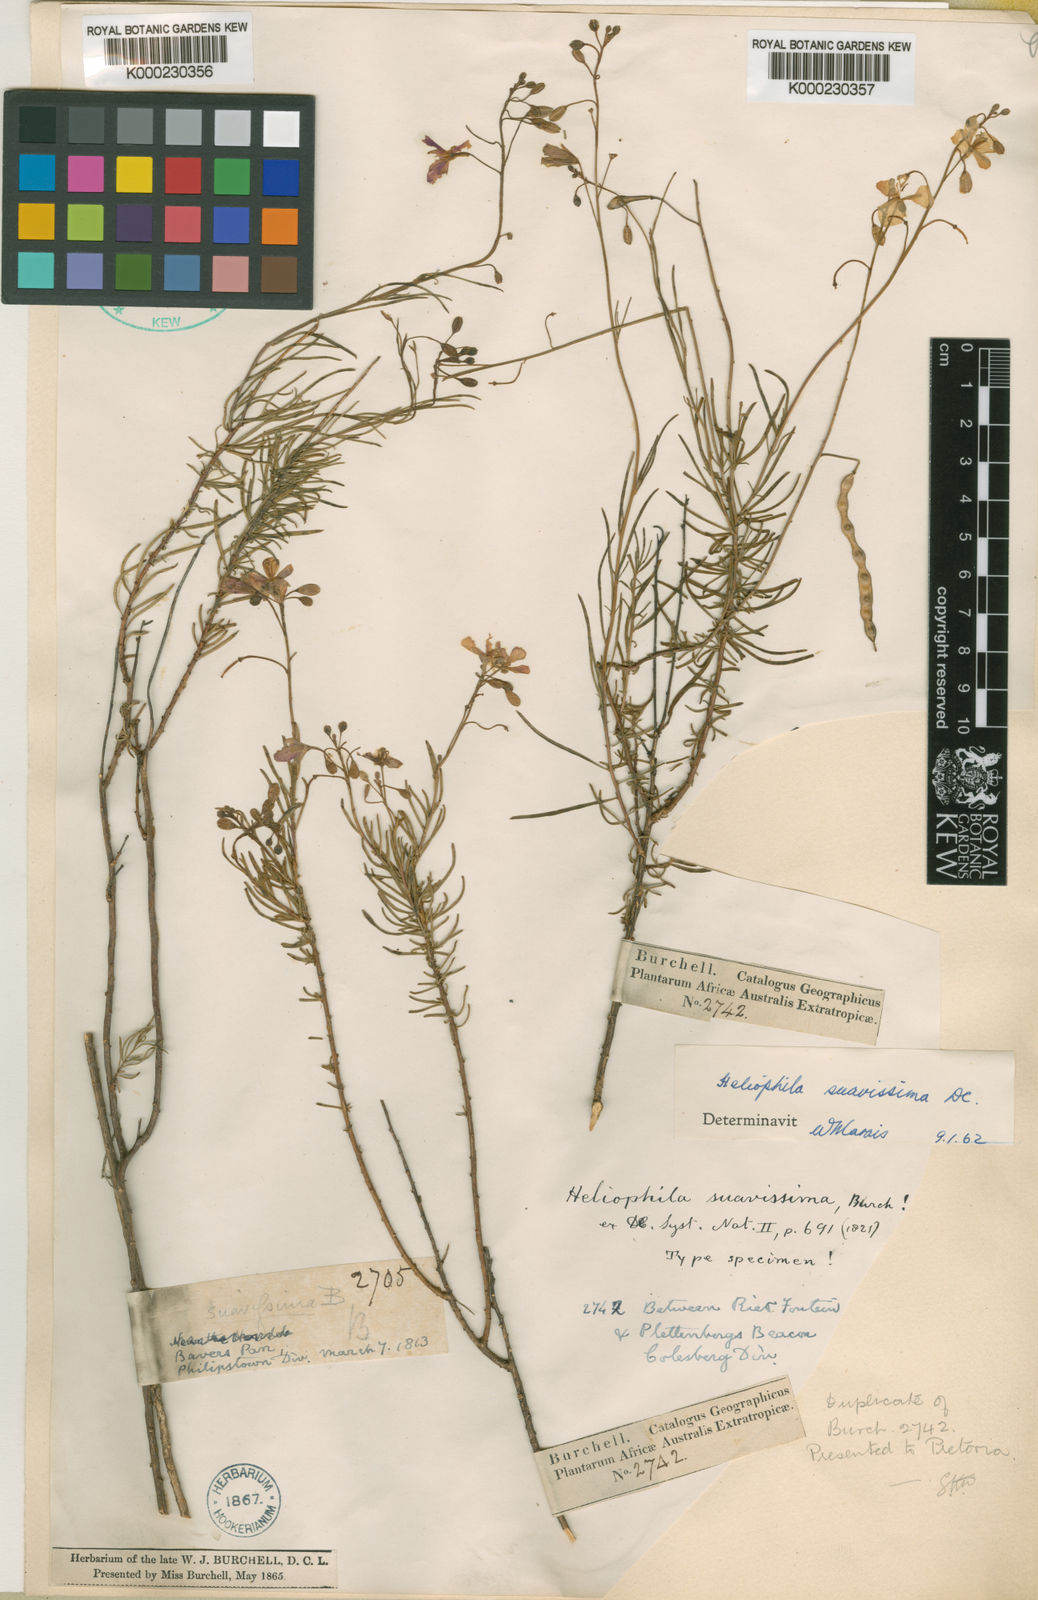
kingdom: Plantae
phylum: Tracheophyta
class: Magnoliopsida
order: Brassicales
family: Brassicaceae
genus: Heliophila
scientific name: Heliophila suavissima
